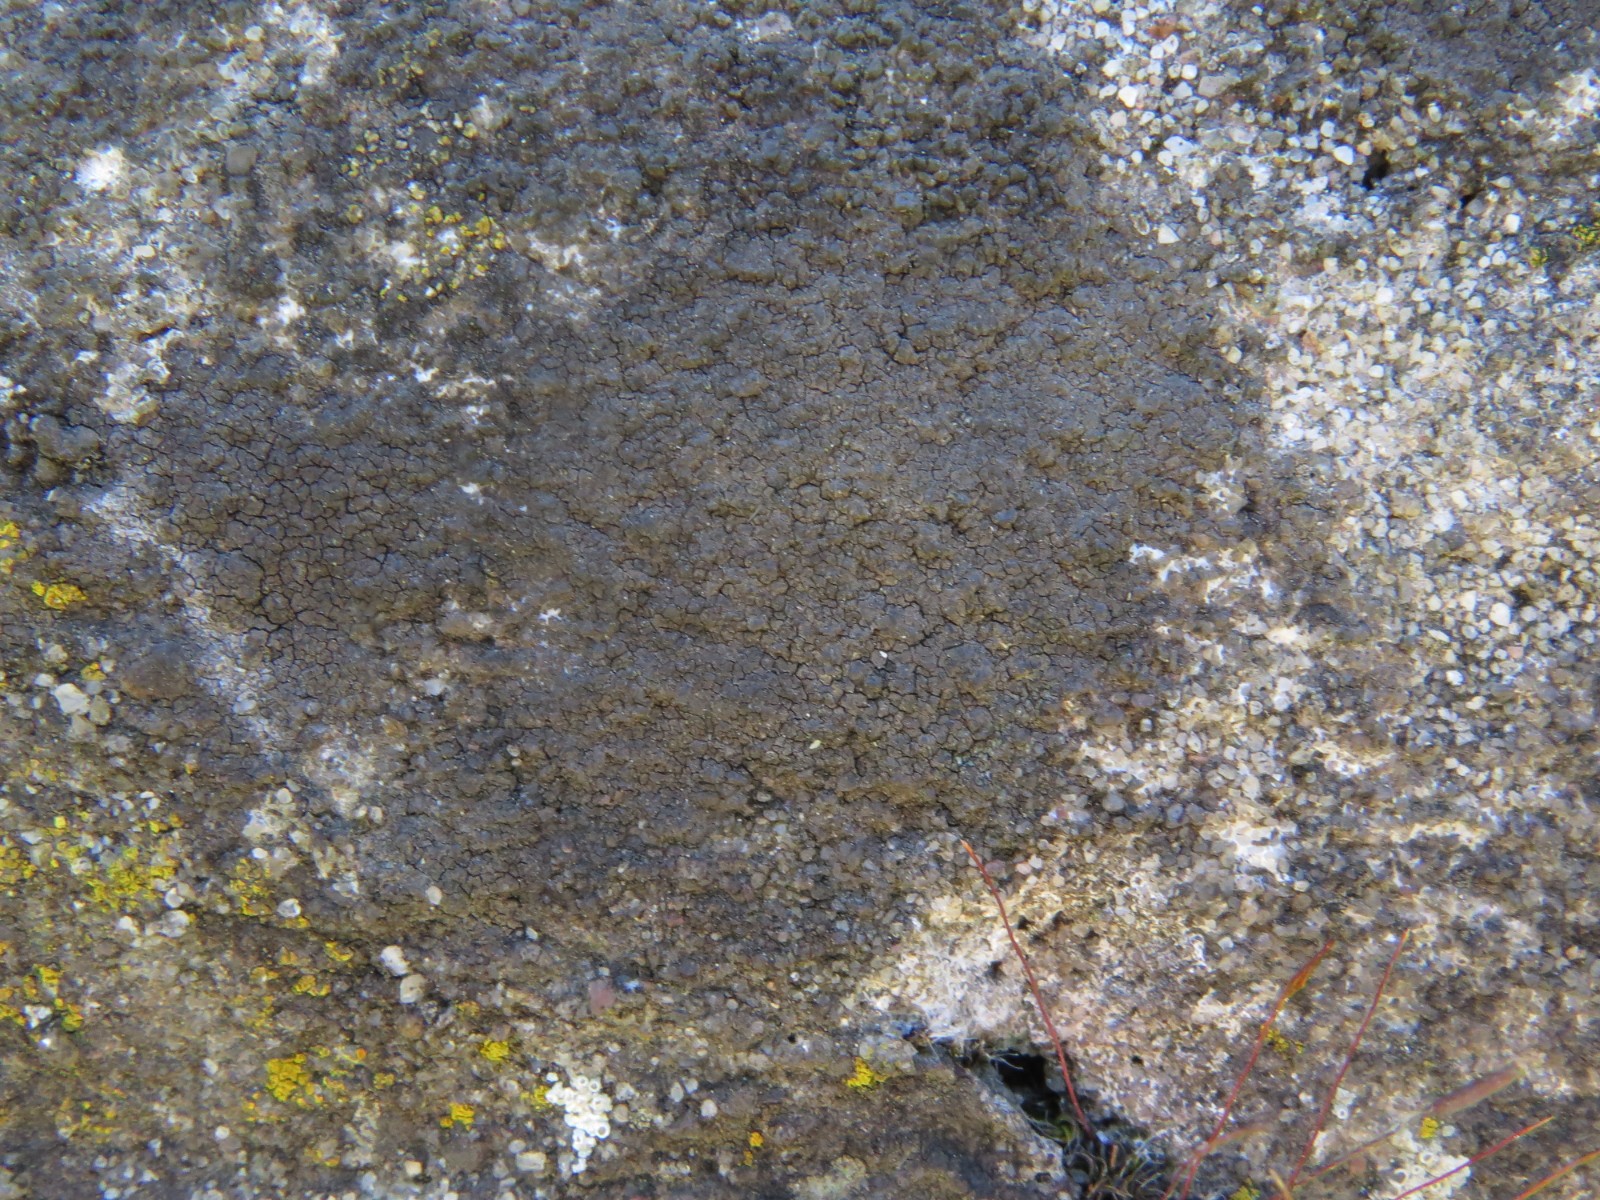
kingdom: Fungi
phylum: Ascomycota
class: Eurotiomycetes
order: Verrucariales
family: Verrucariaceae
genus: Verrucaria
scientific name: Verrucaria nigrescens
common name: sortbrun vortelav
